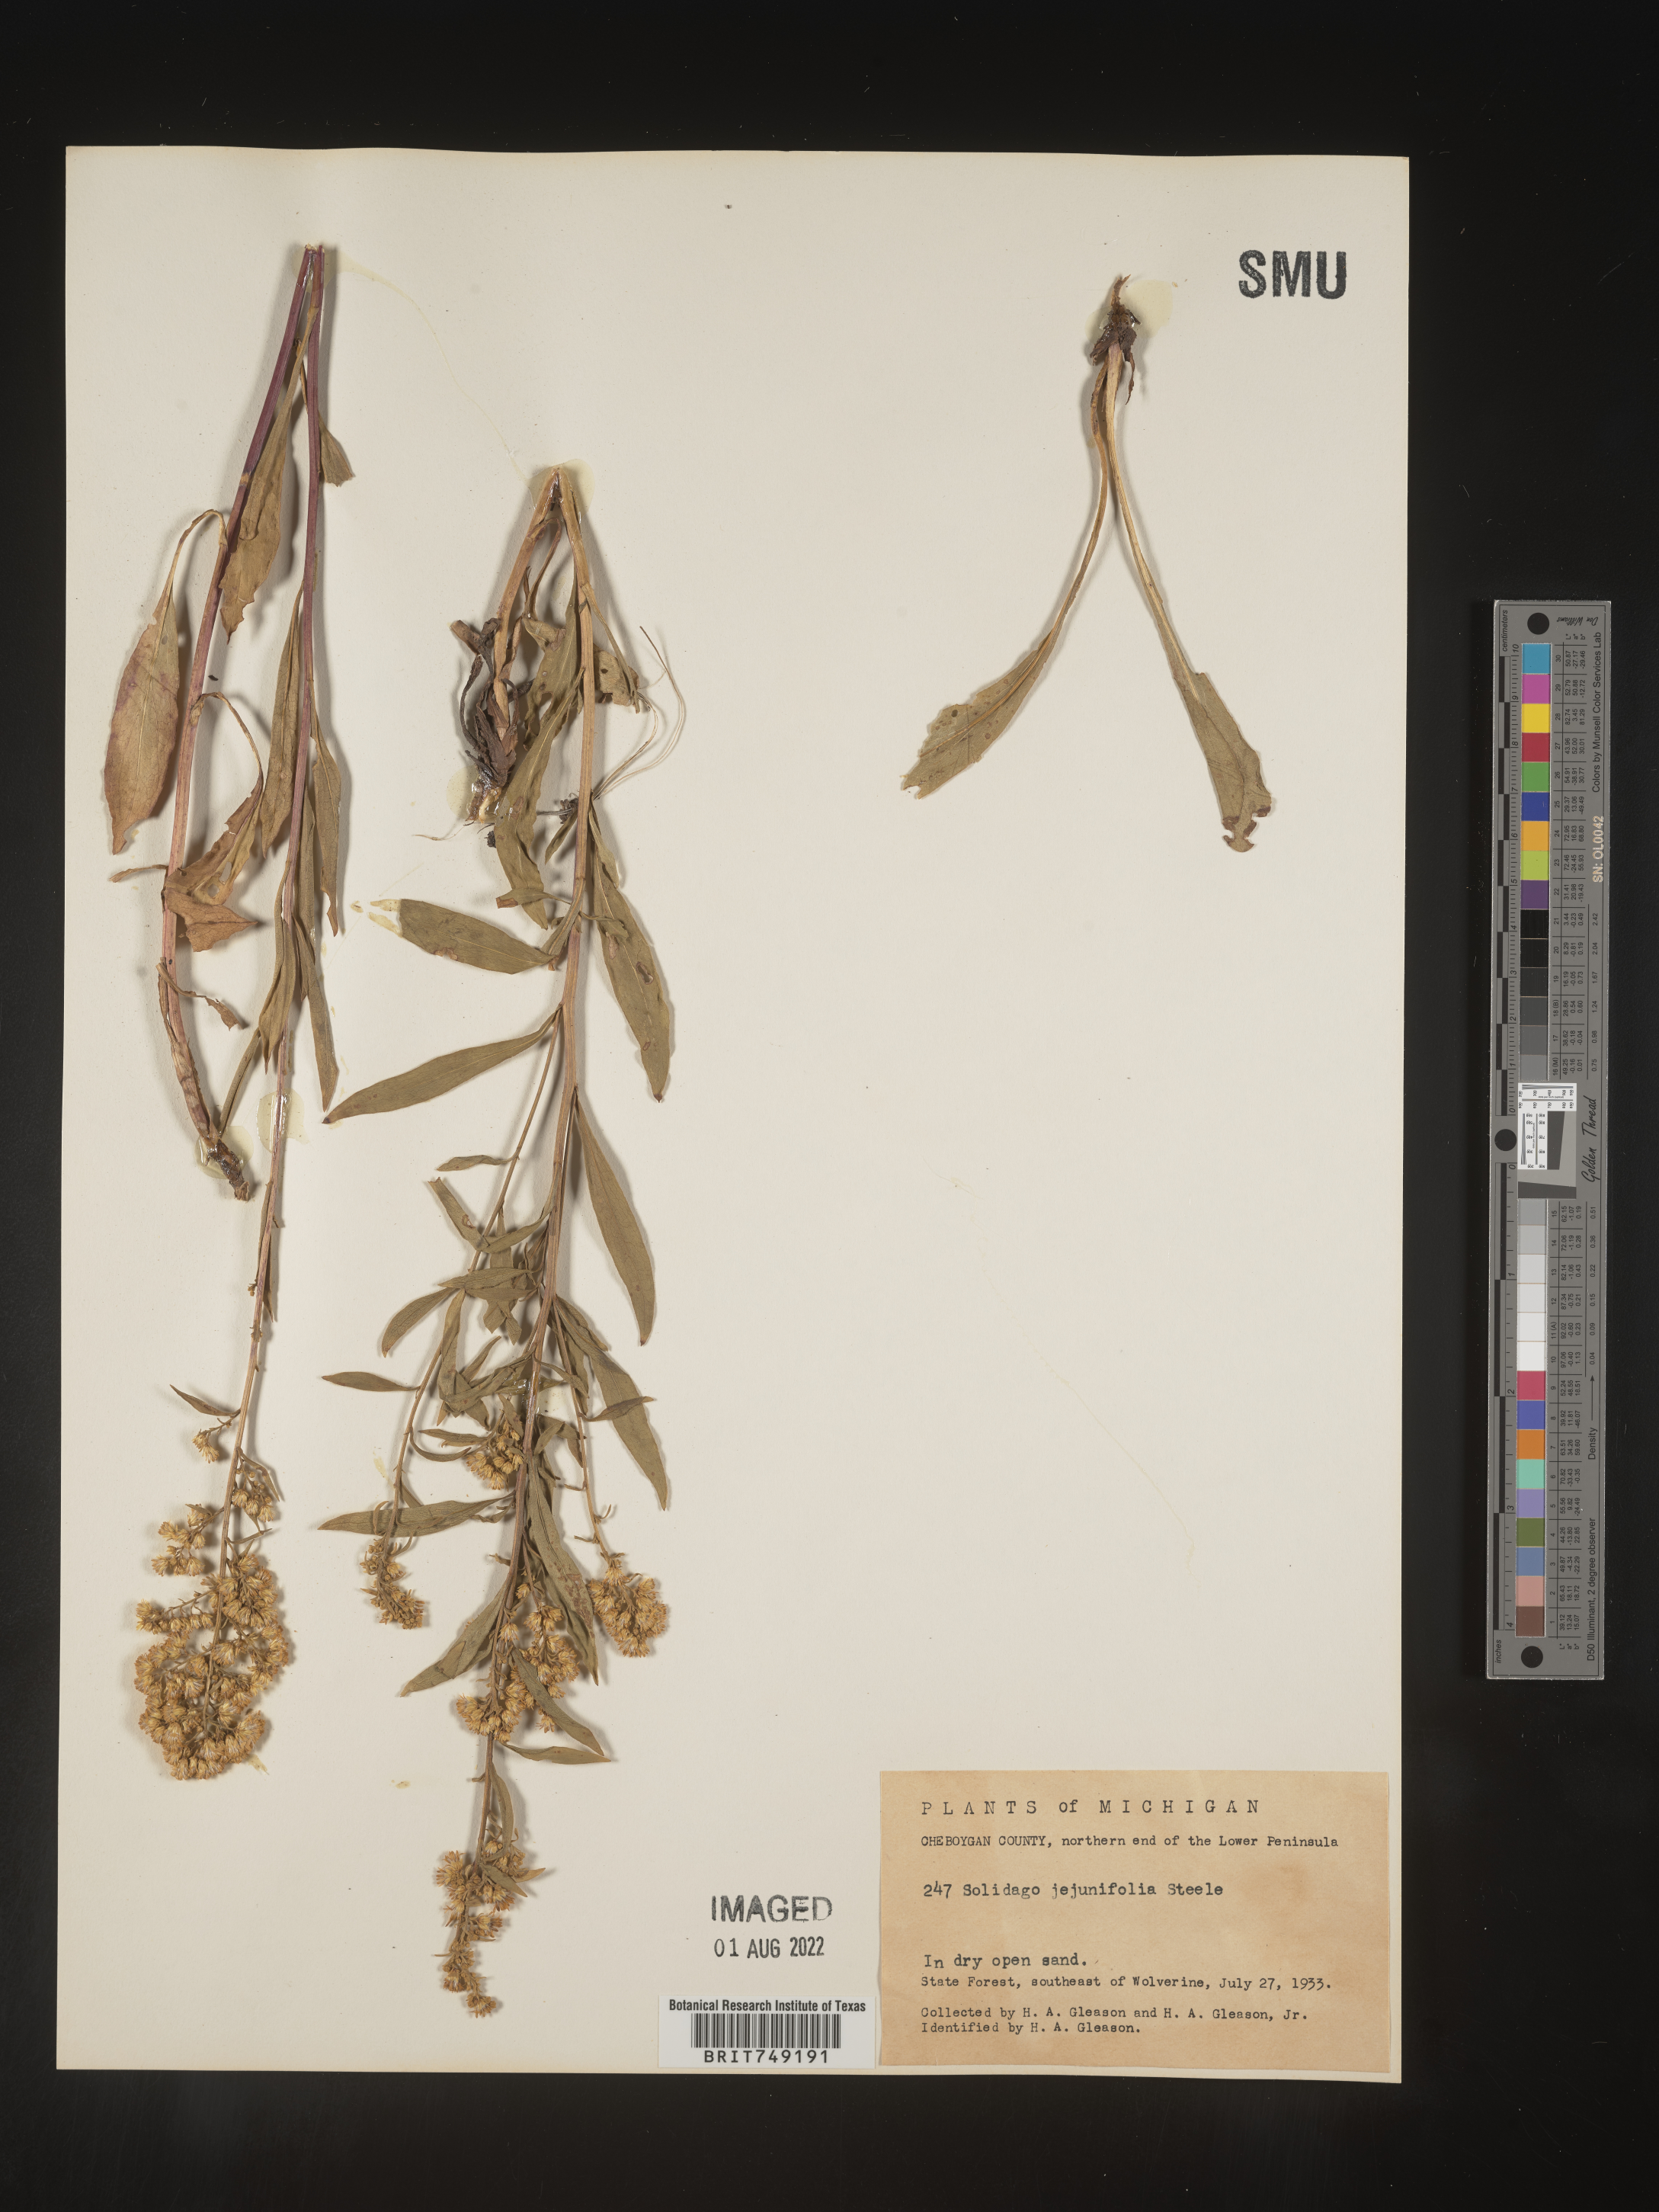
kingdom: Plantae
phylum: Tracheophyta
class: Magnoliopsida
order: Asterales
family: Asteraceae
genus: Solidago
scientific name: Solidago speciosa
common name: Showy goldenrod
